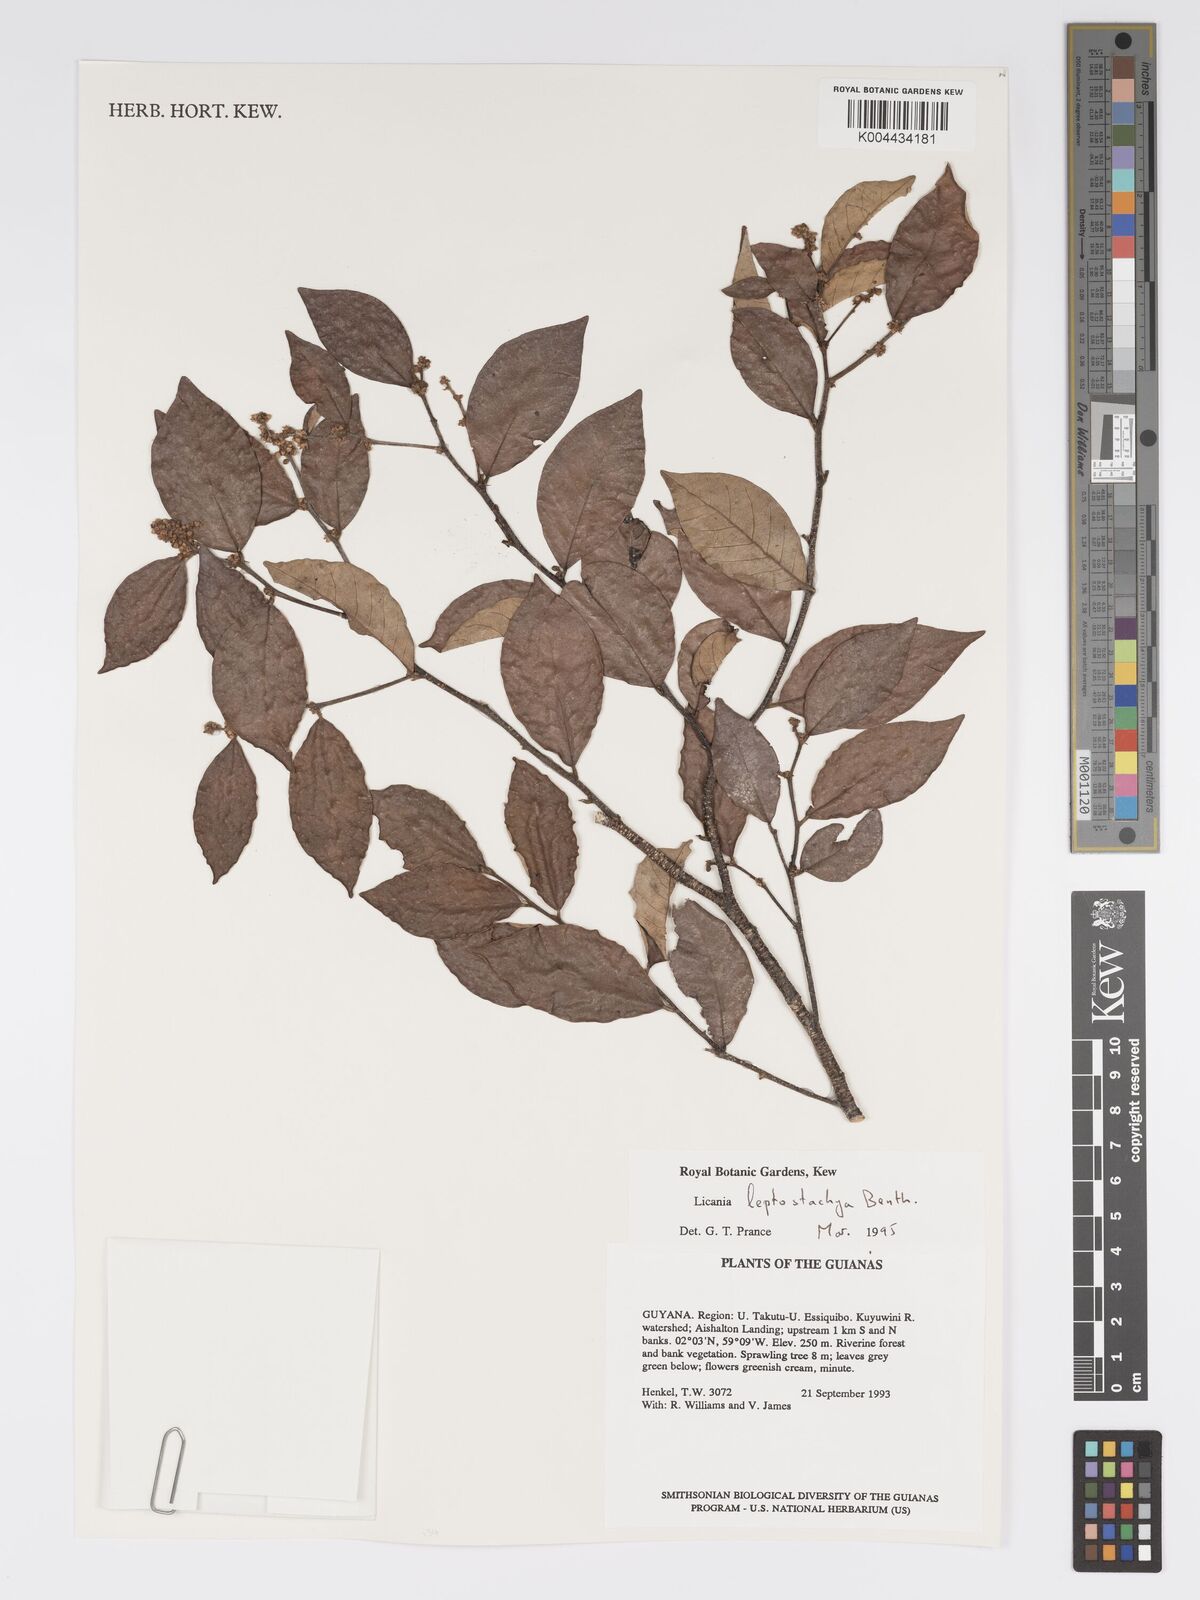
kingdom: Plantae
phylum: Tracheophyta
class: Magnoliopsida
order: Malpighiales
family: Chrysobalanaceae
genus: Licania
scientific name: Licania leptostachya
